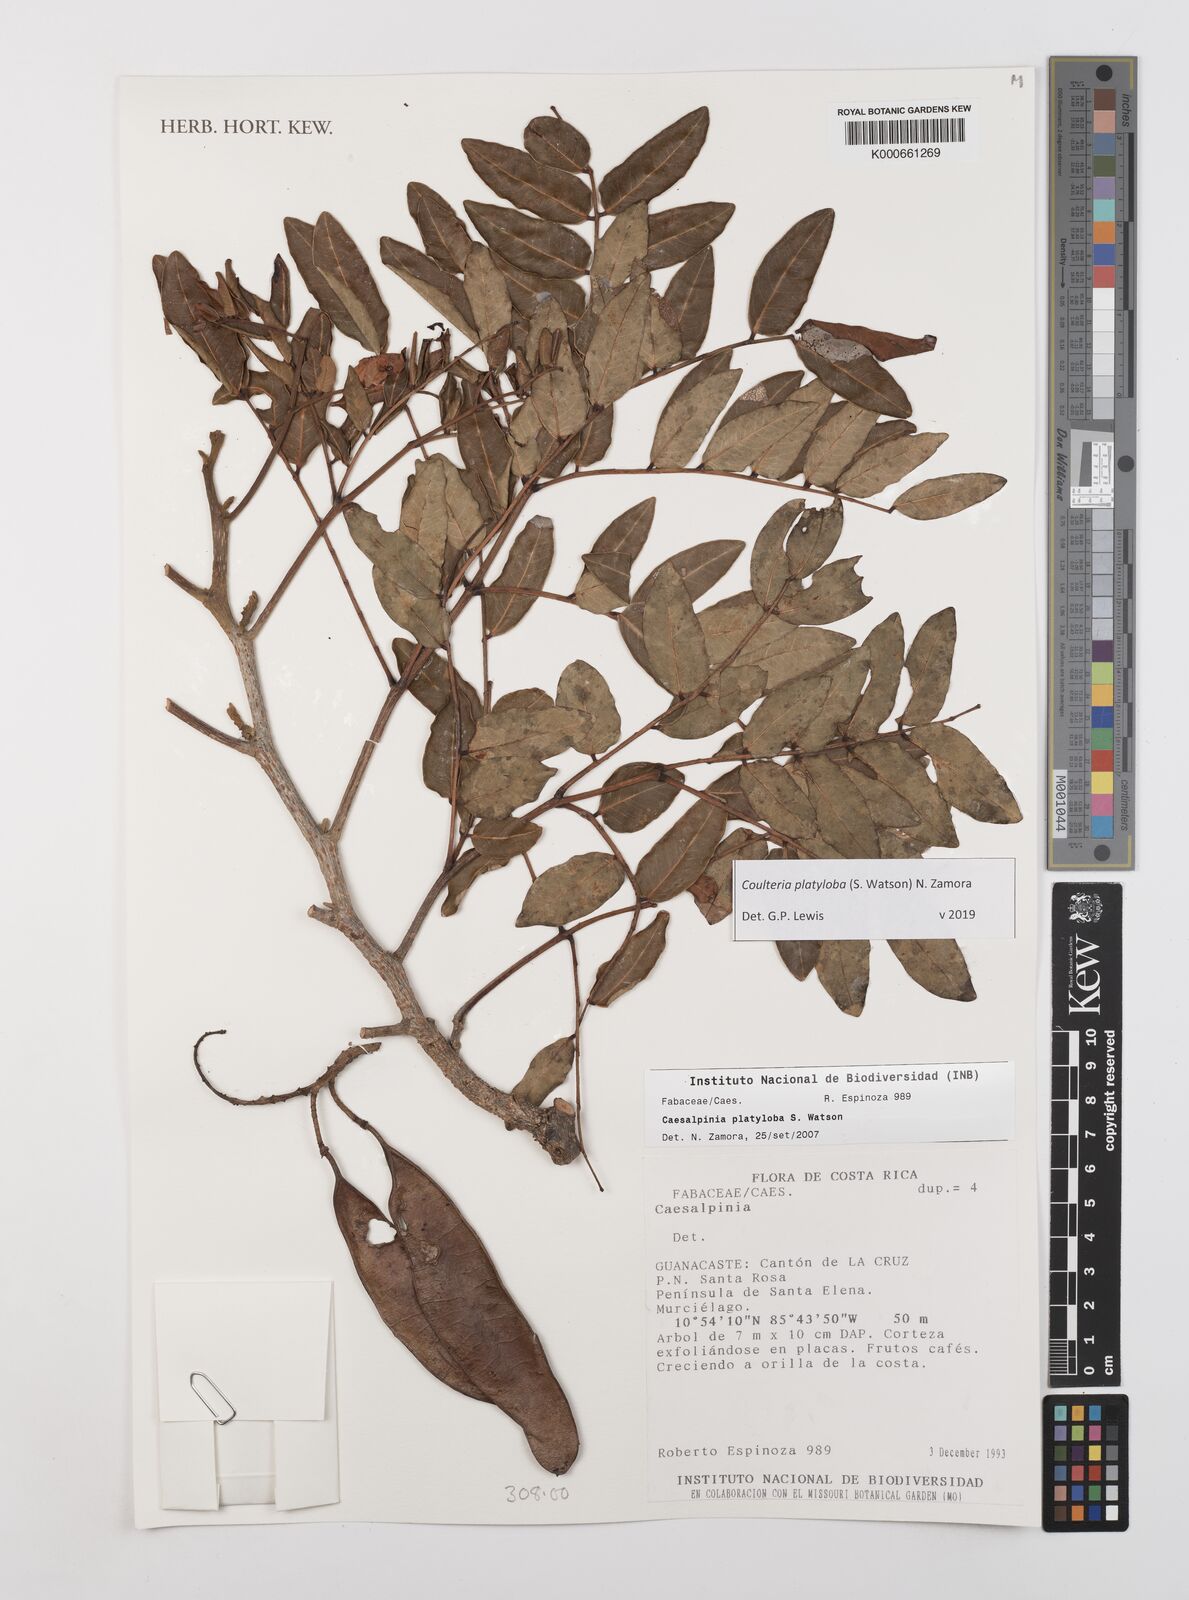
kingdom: Plantae
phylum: Tracheophyta
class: Magnoliopsida
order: Fabales
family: Fabaceae
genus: Coulteria
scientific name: Coulteria platyloba
